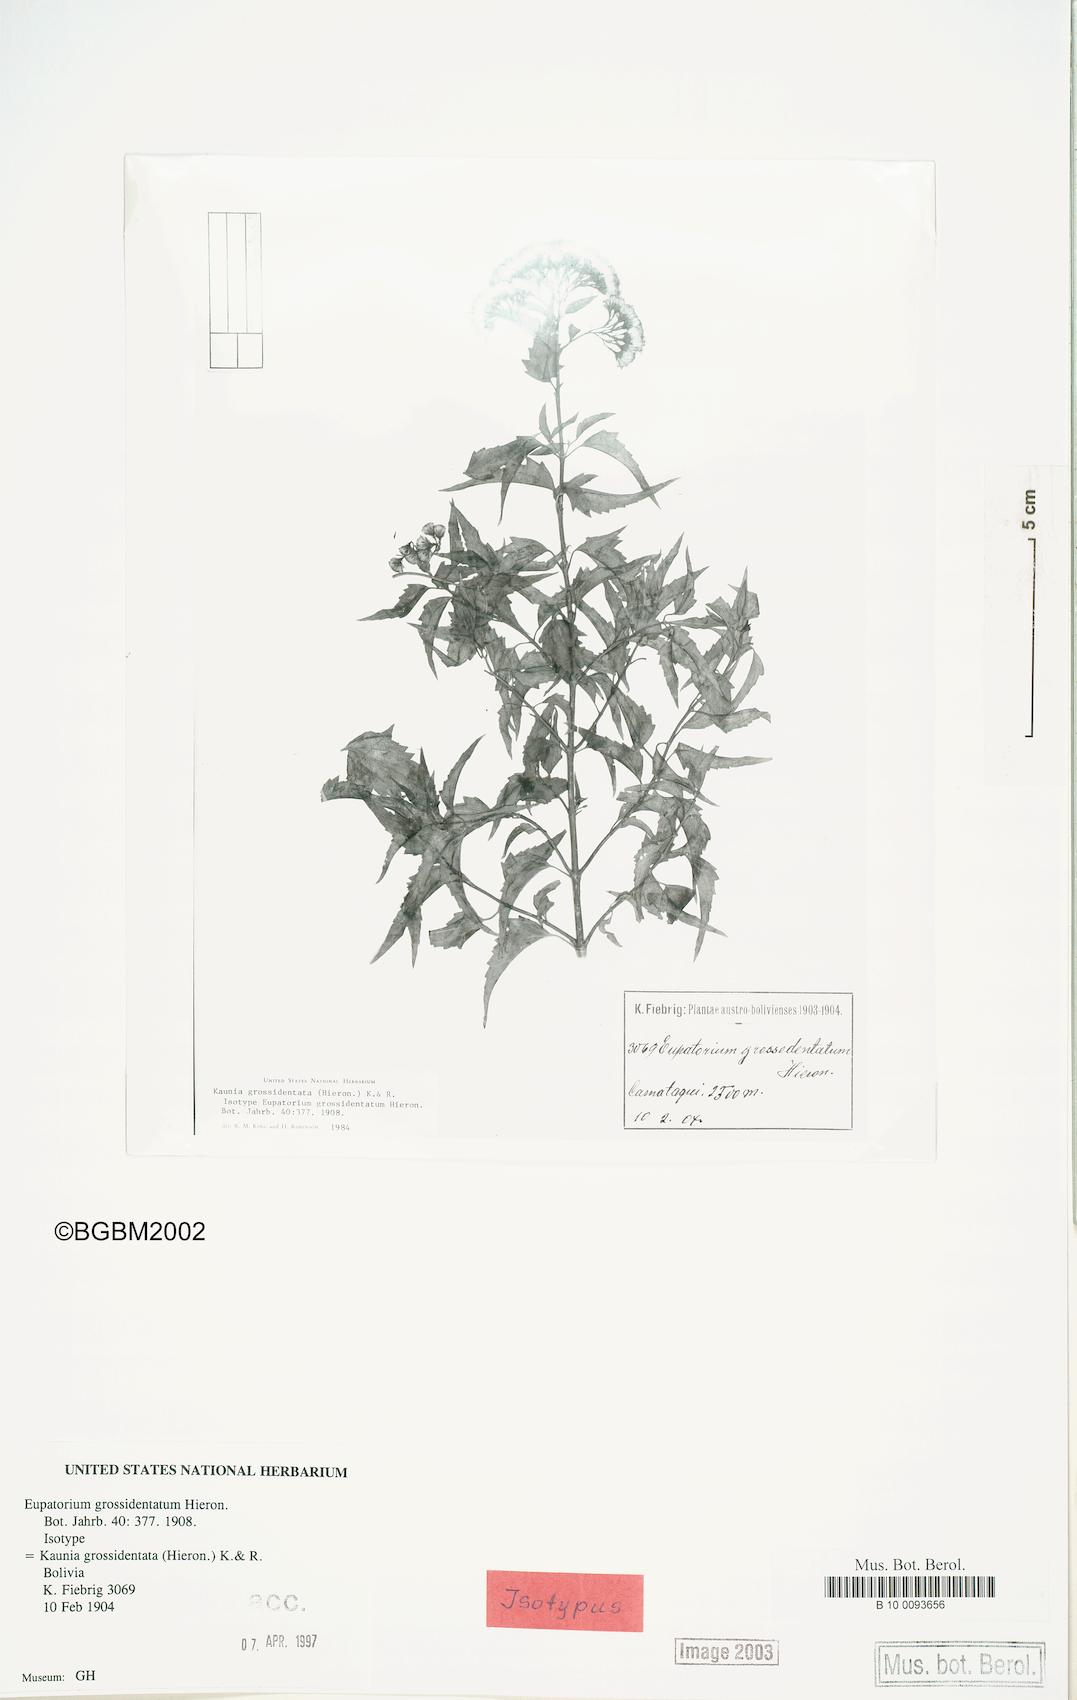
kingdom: Plantae
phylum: Tracheophyta
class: Magnoliopsida
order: Asterales
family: Asteraceae
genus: Kaunia
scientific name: Kaunia camataguiensis
